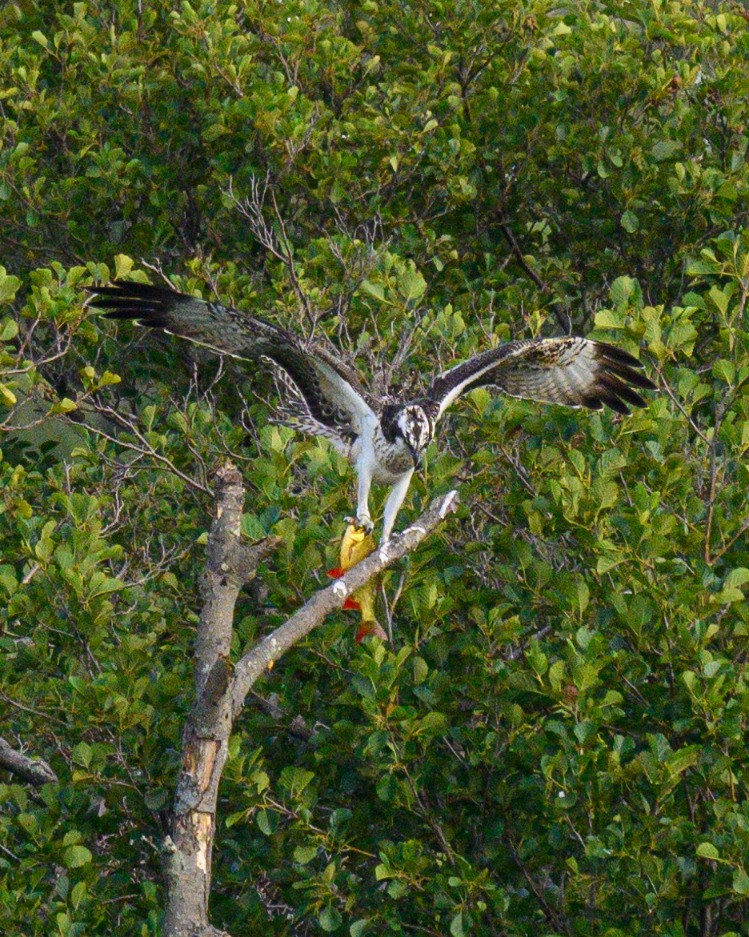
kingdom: Animalia
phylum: Chordata
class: Aves
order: Accipitriformes
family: Pandionidae
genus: Pandion
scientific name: Pandion haliaetus
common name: Fiskeørn
